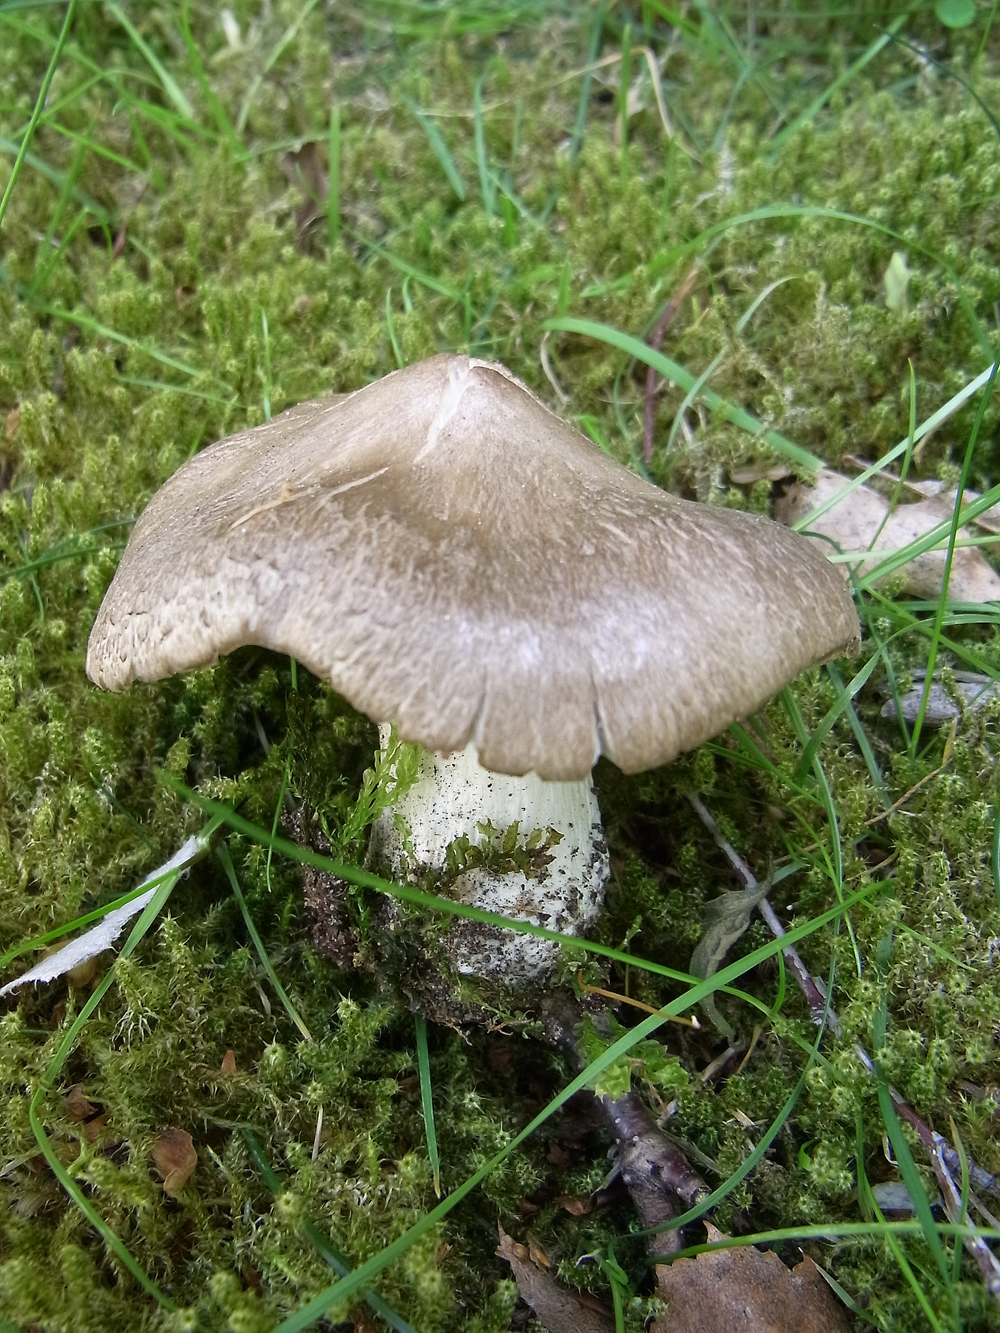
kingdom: Fungi
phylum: Basidiomycota
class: Agaricomycetes
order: Agaricales
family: Entolomataceae
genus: Entoloma
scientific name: Entoloma clypeatum
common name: Shield pinkgill
